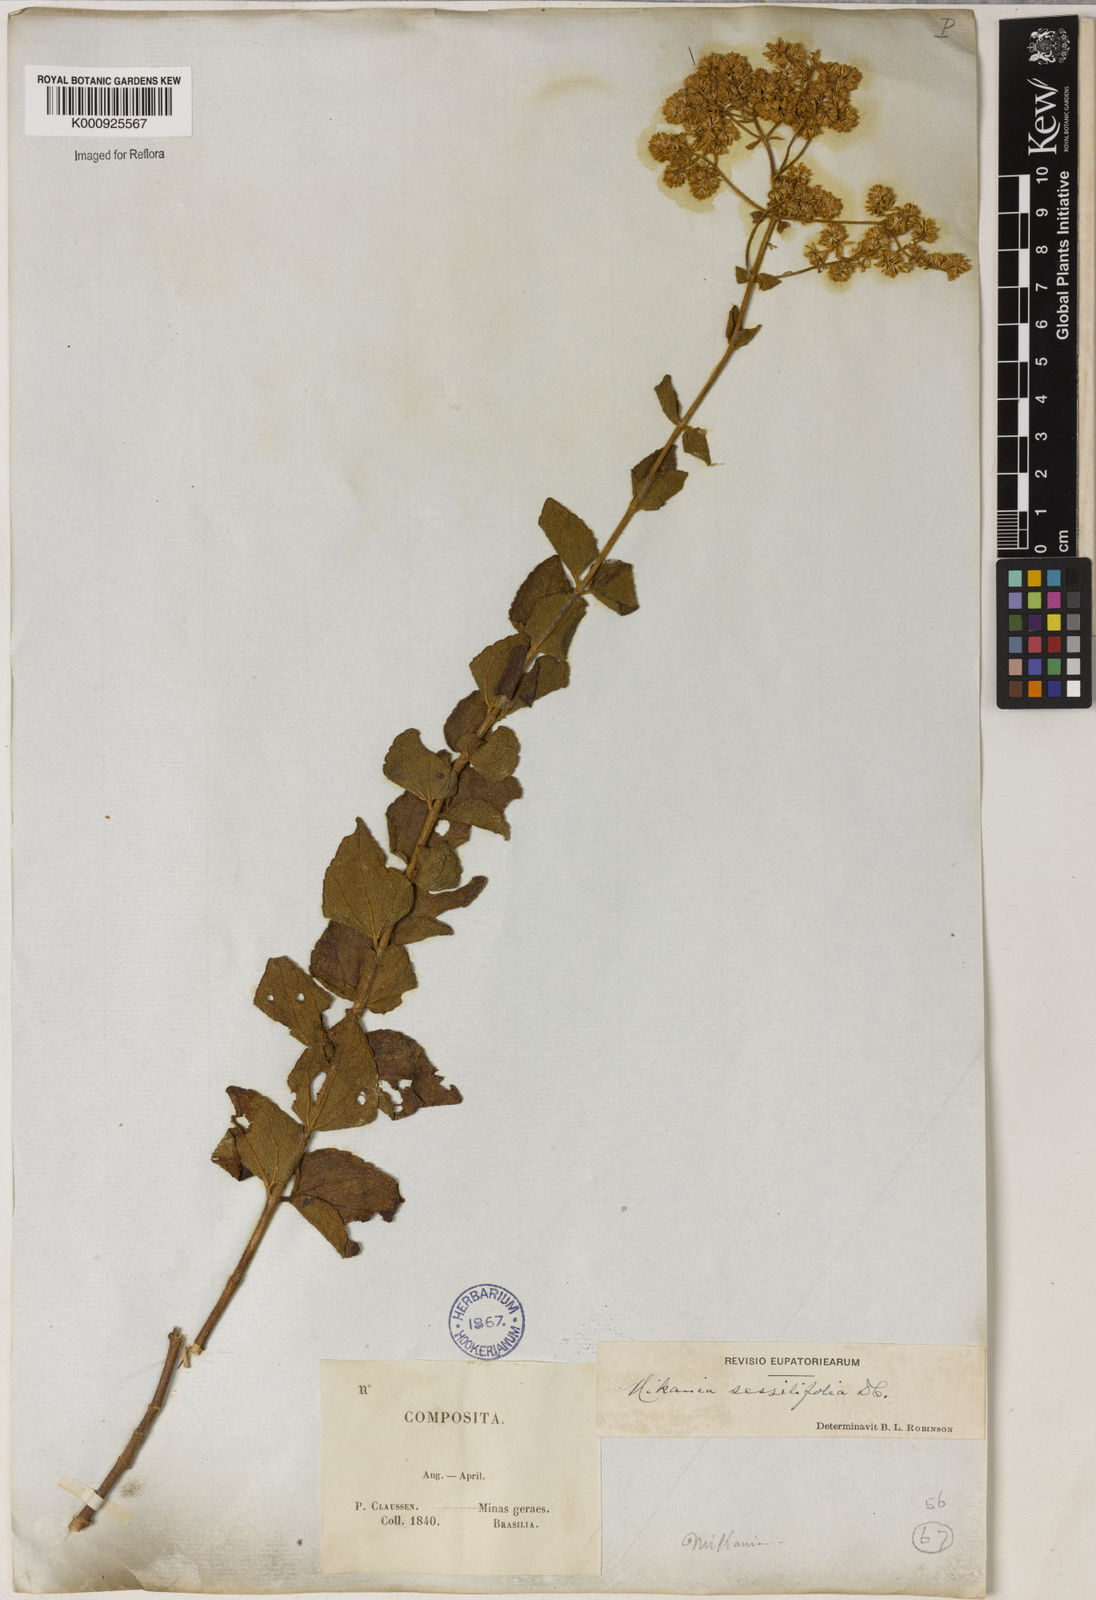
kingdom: Plantae
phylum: Tracheophyta
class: Magnoliopsida
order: Asterales
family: Asteraceae
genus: Mikania
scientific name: Mikania sessilifolia
